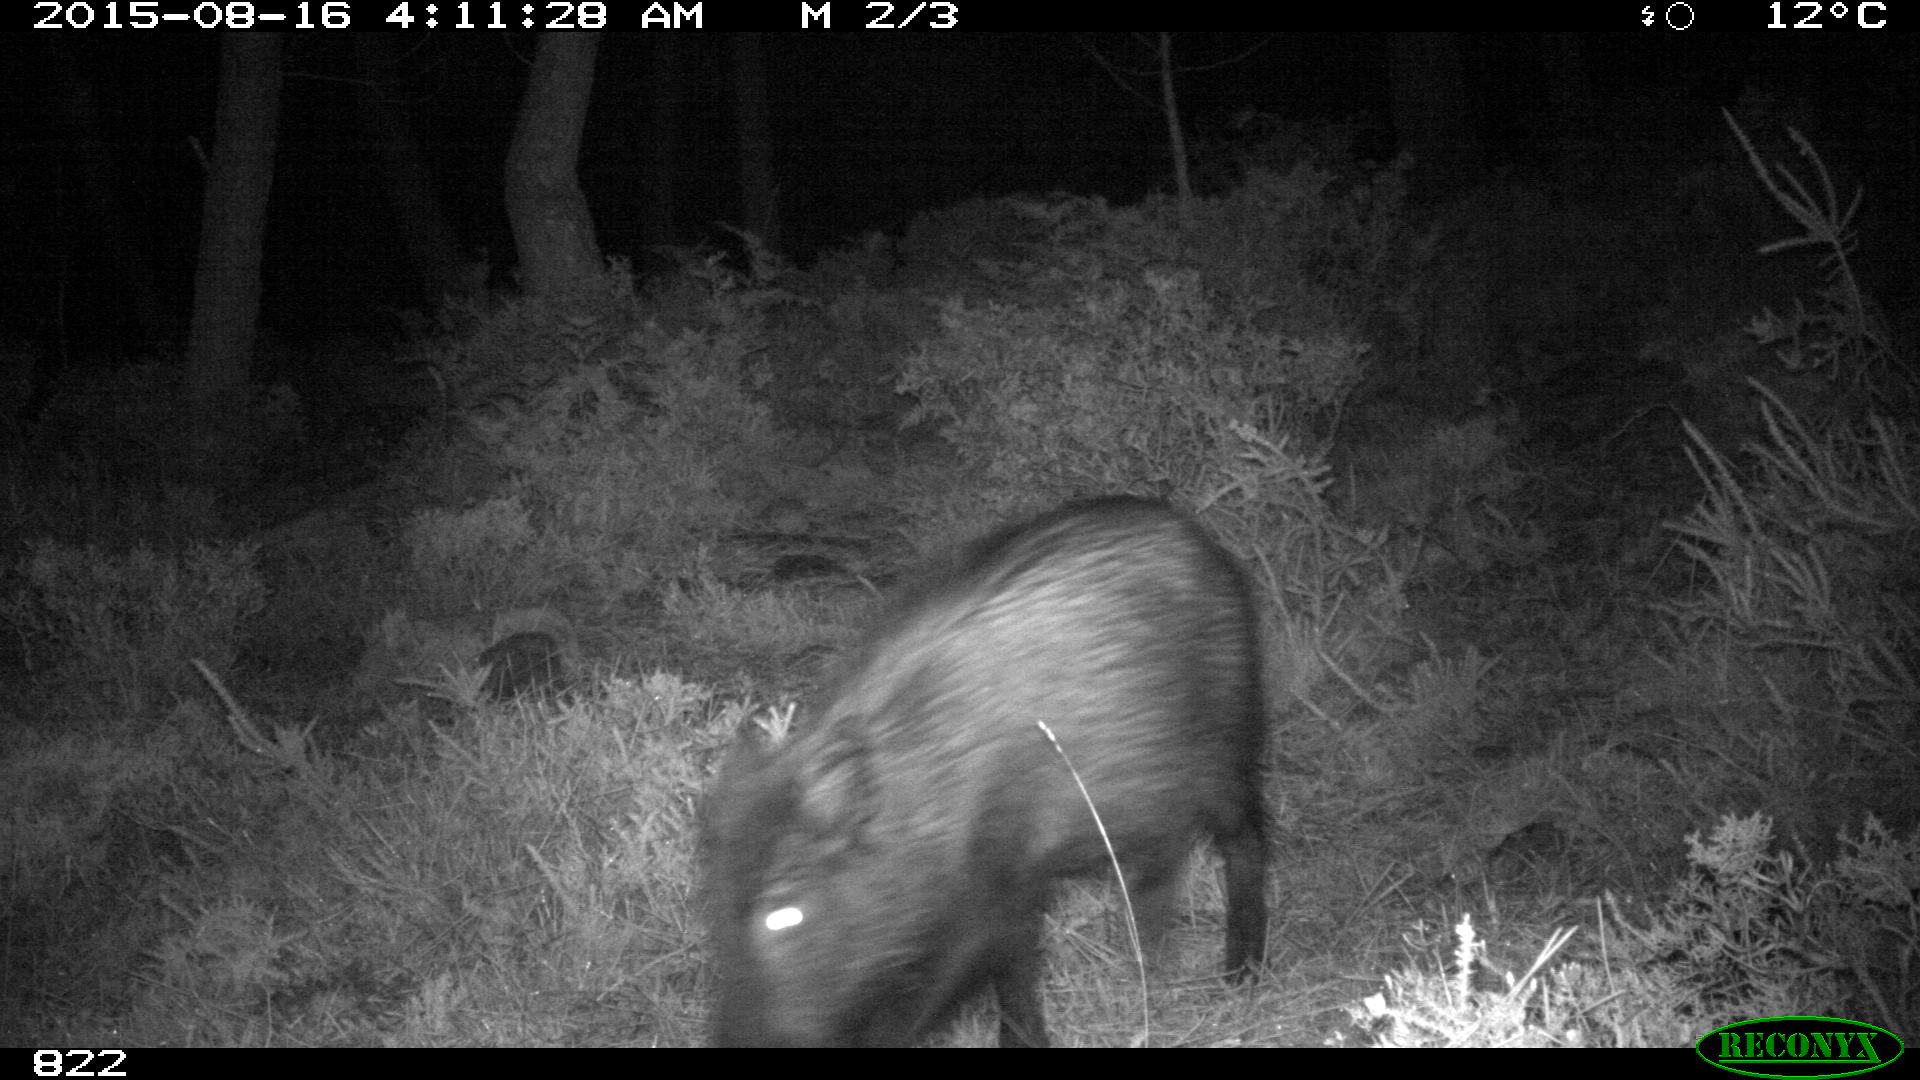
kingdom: Animalia
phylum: Chordata
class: Mammalia
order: Artiodactyla
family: Suidae
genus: Sus
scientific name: Sus scrofa
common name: Wild boar
